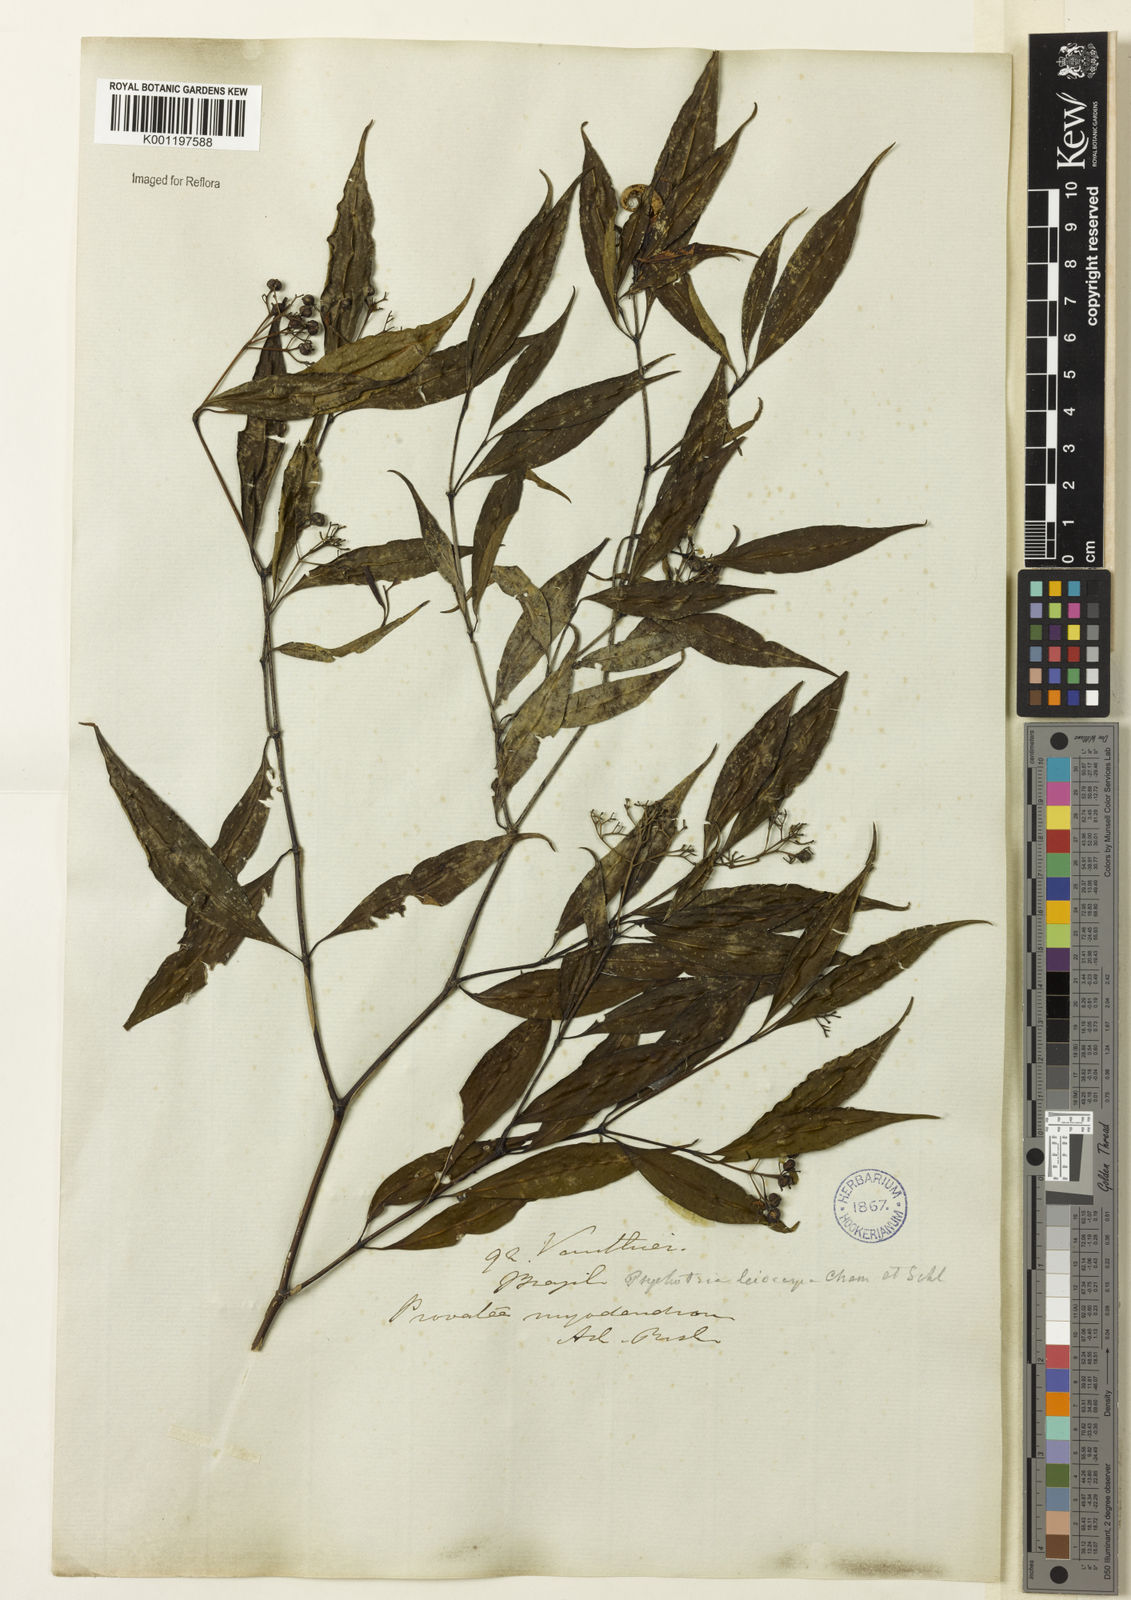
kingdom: Plantae
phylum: Tracheophyta
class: Magnoliopsida
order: Gentianales
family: Rubiaceae
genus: Psychotria
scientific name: Psychotria leiocarpa
